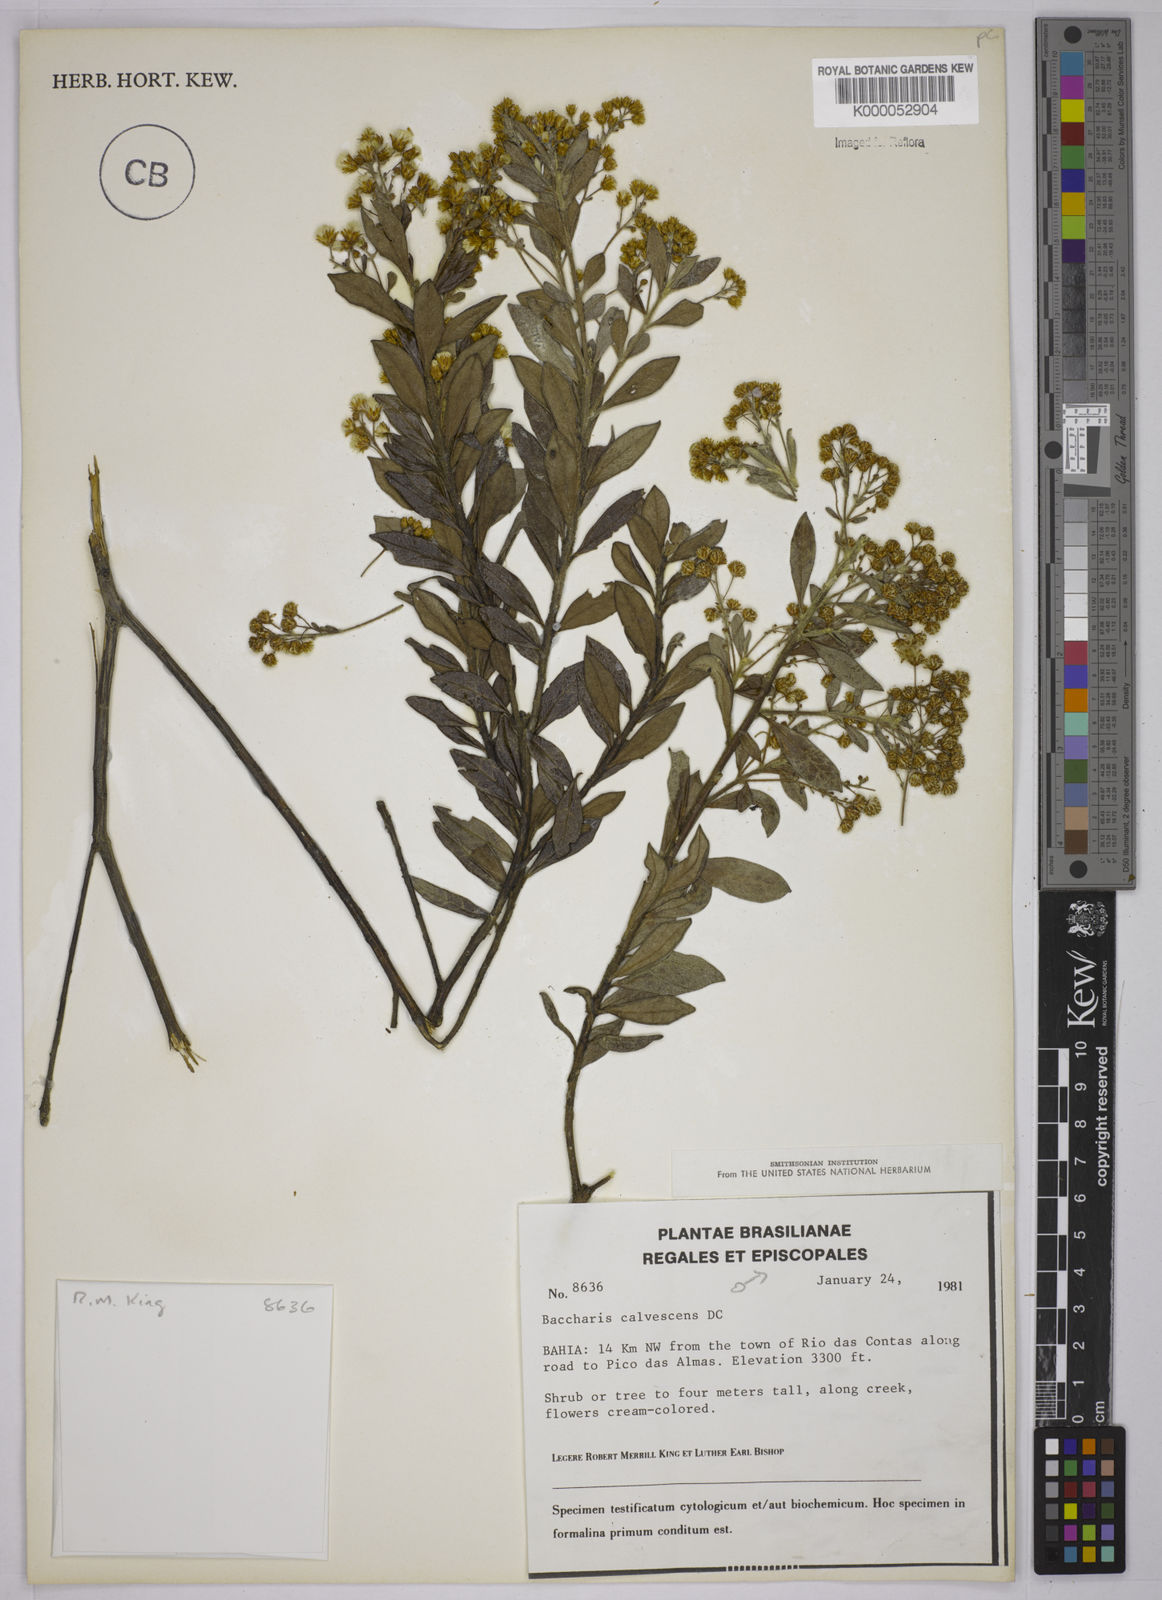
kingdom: Plantae
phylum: Tracheophyta
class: Magnoliopsida
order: Asterales
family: Asteraceae
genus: Baccharis
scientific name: Baccharis calvescens
